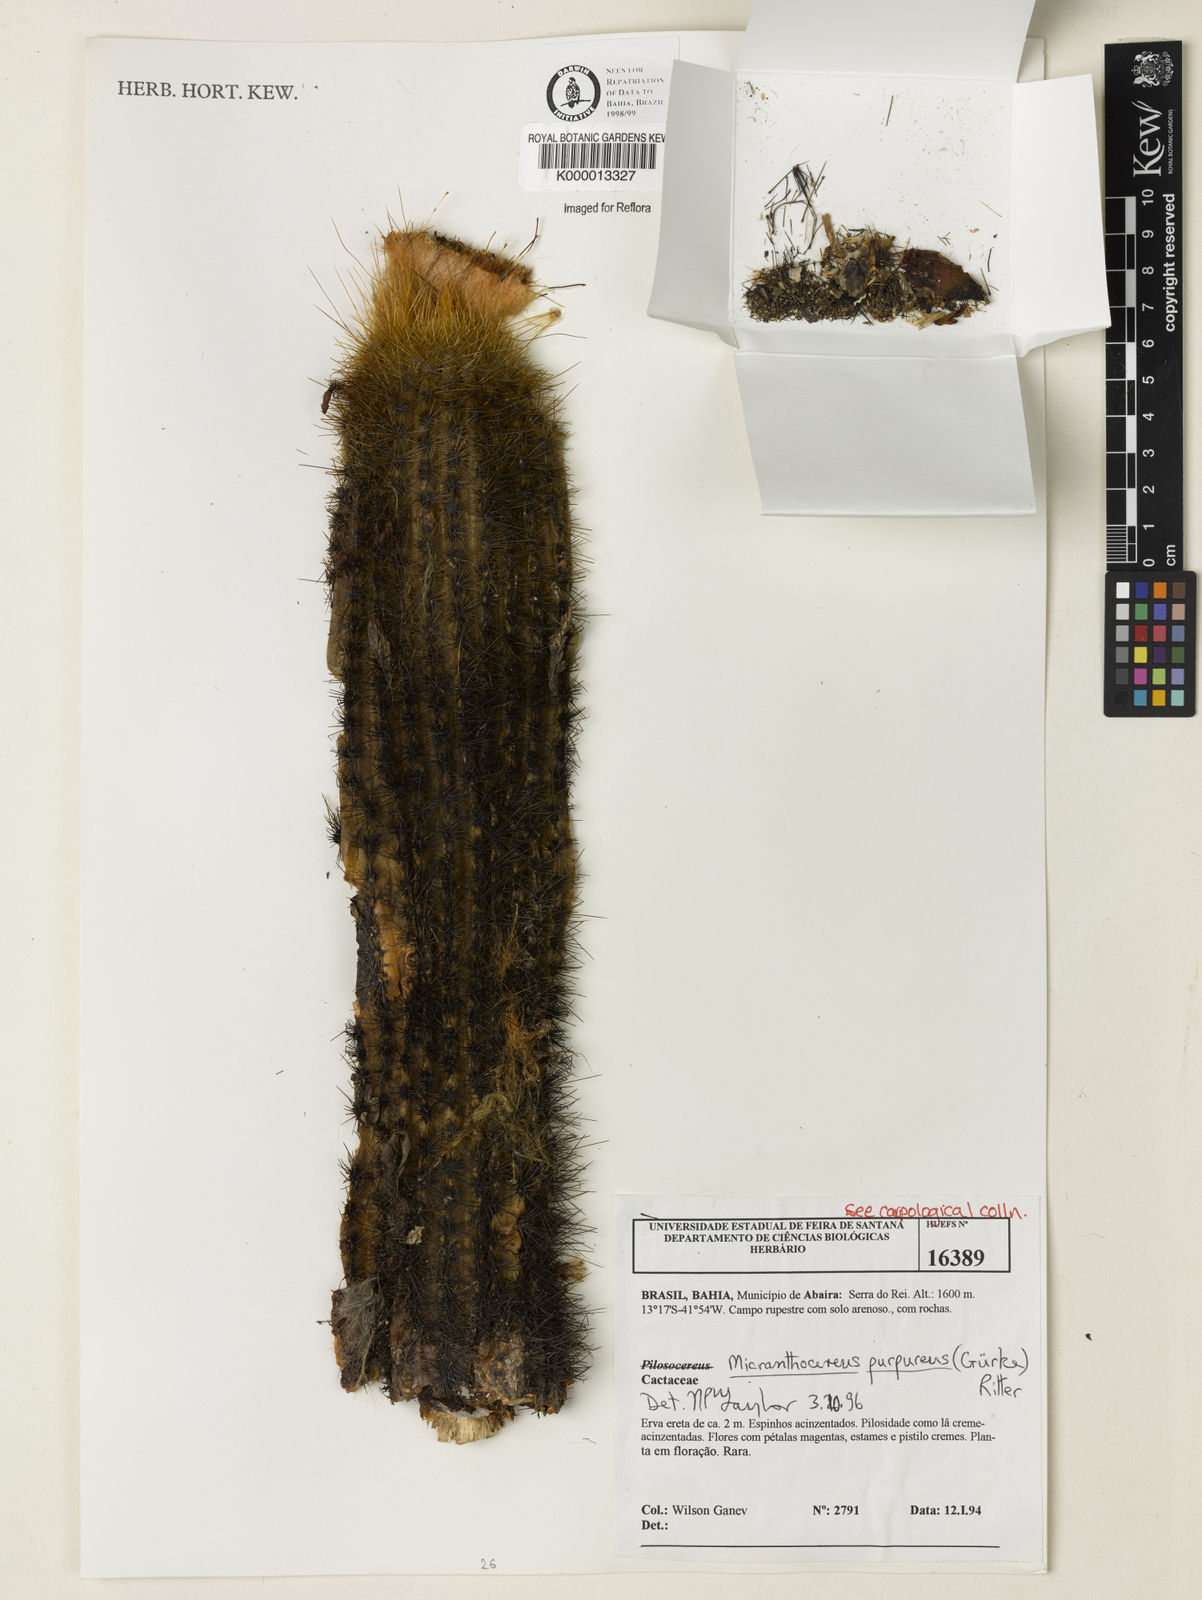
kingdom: Plantae
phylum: Tracheophyta
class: Magnoliopsida
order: Caryophyllales
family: Cactaceae
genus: Micranthocereus
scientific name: Micranthocereus purpureus
